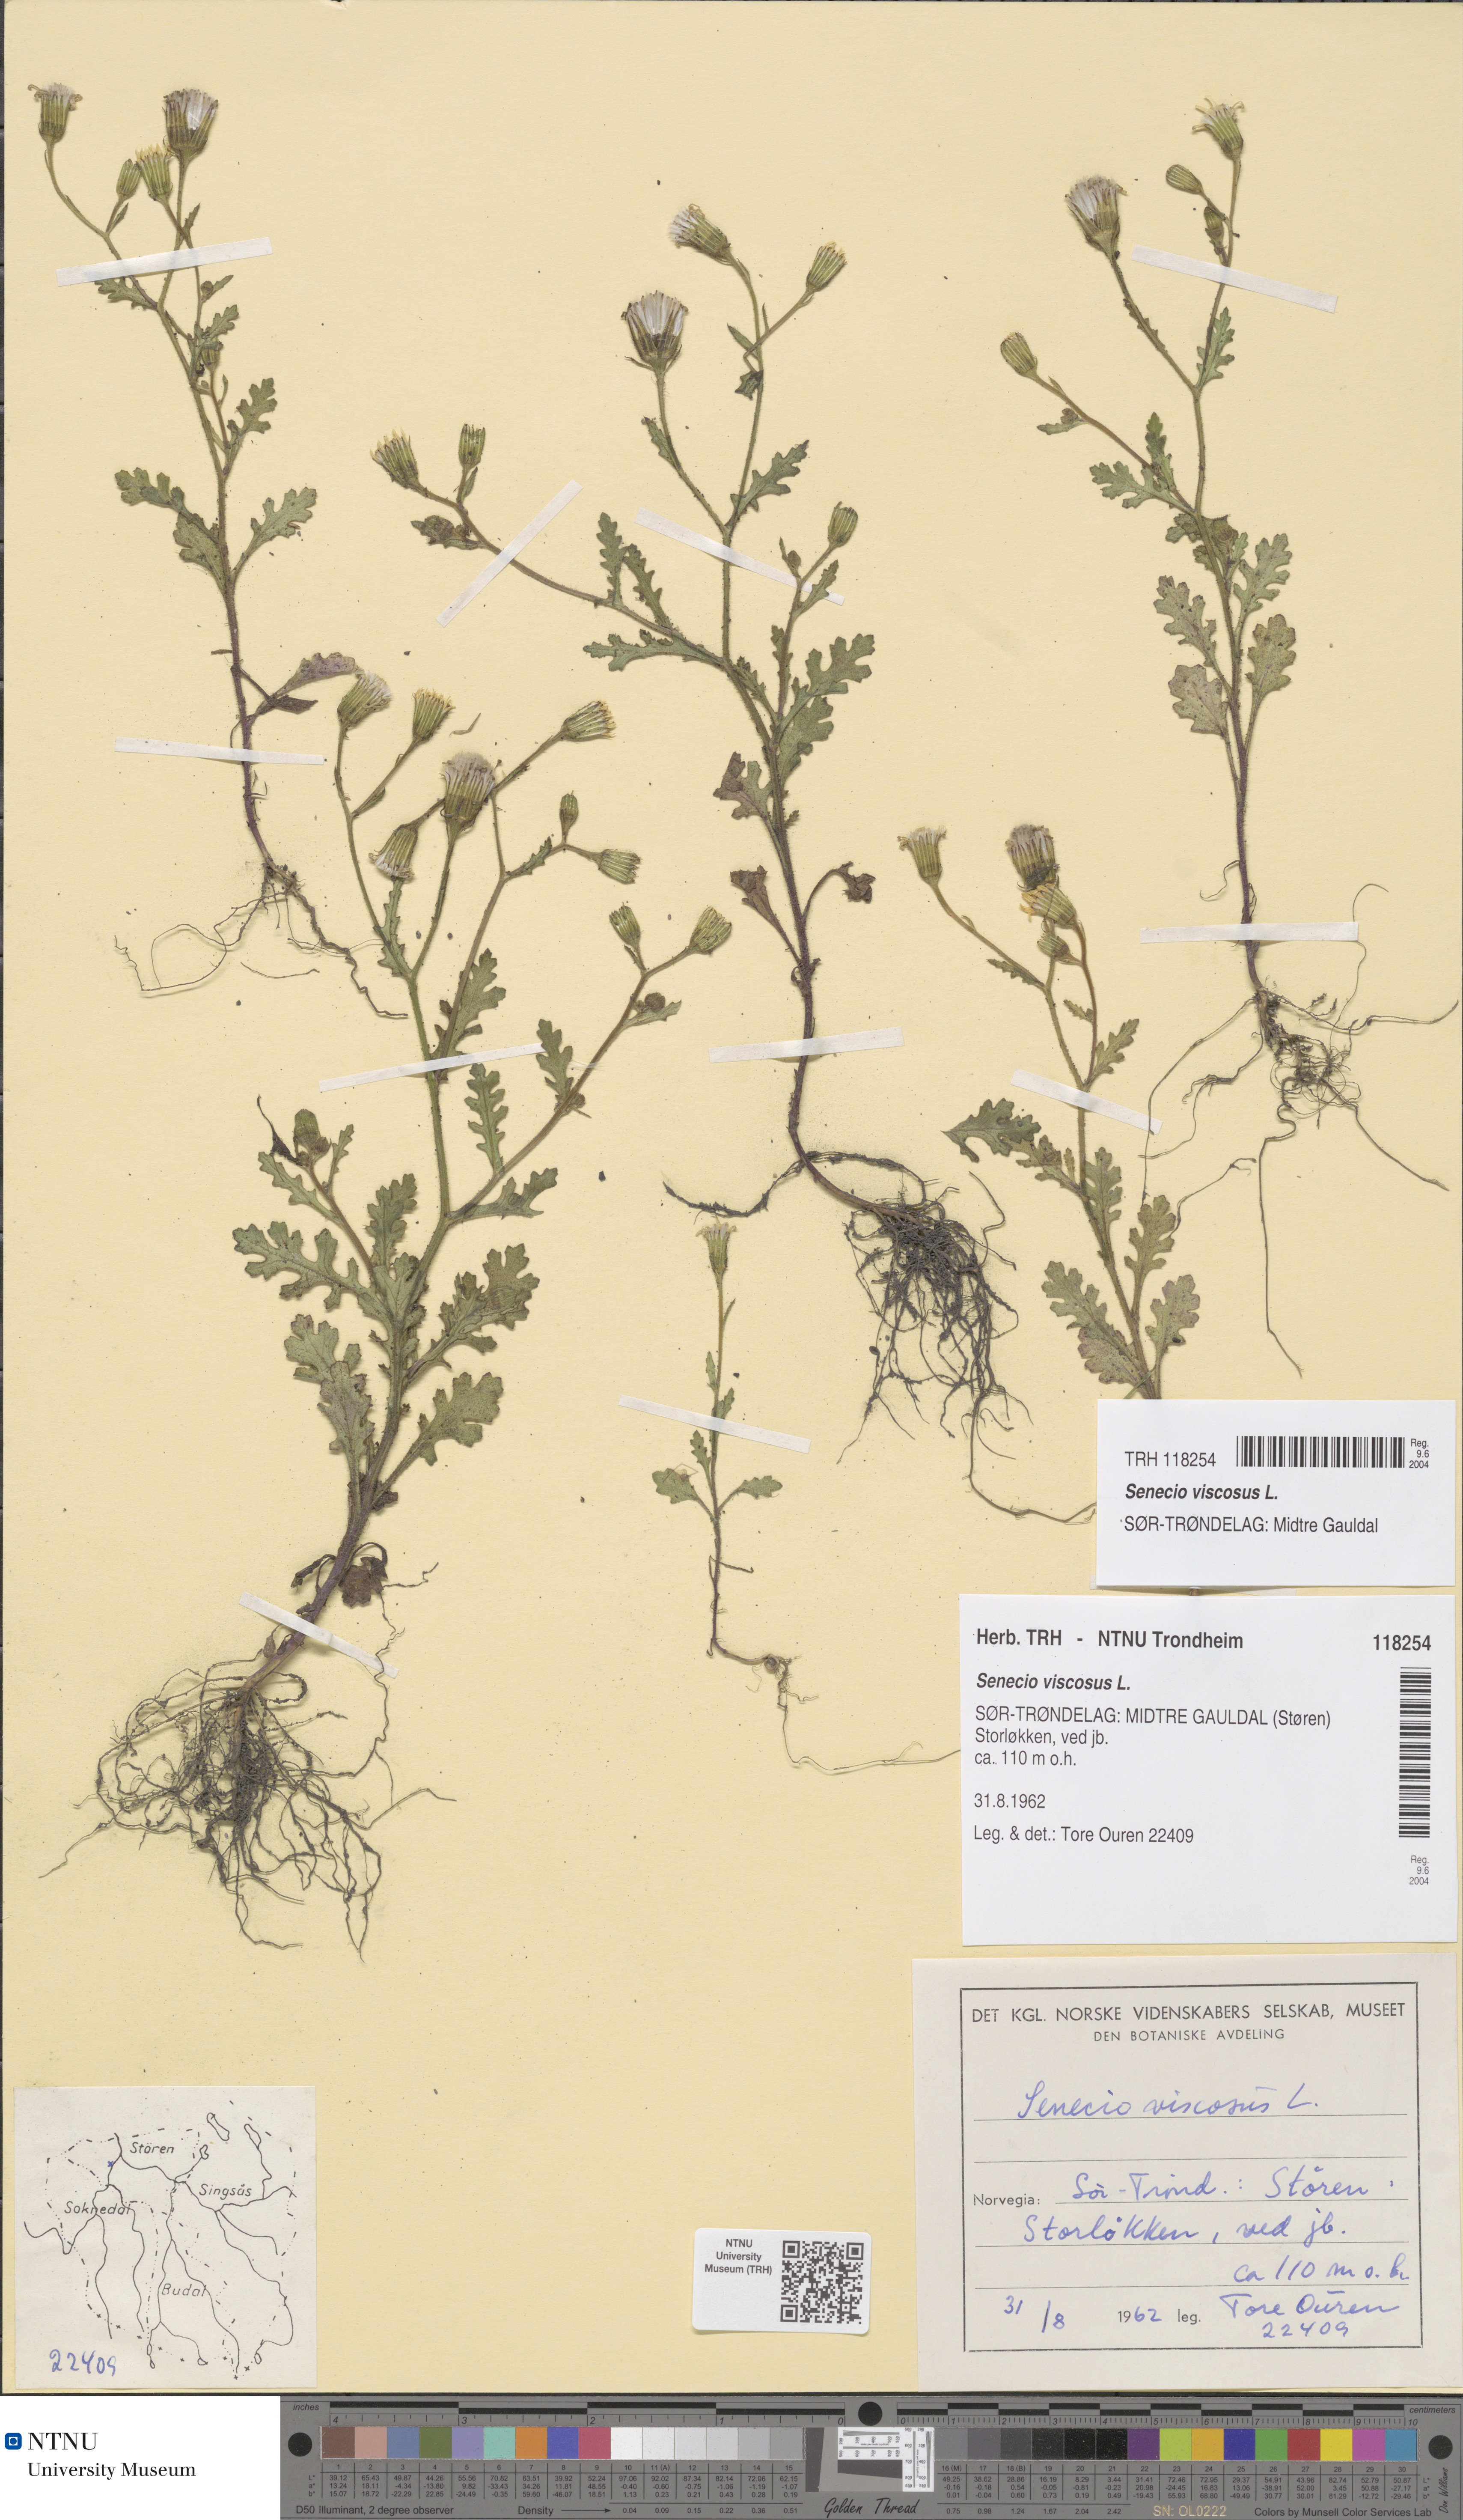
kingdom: Plantae
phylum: Tracheophyta
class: Magnoliopsida
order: Asterales
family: Asteraceae
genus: Senecio
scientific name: Senecio viscosus
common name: Sticky groundsel
